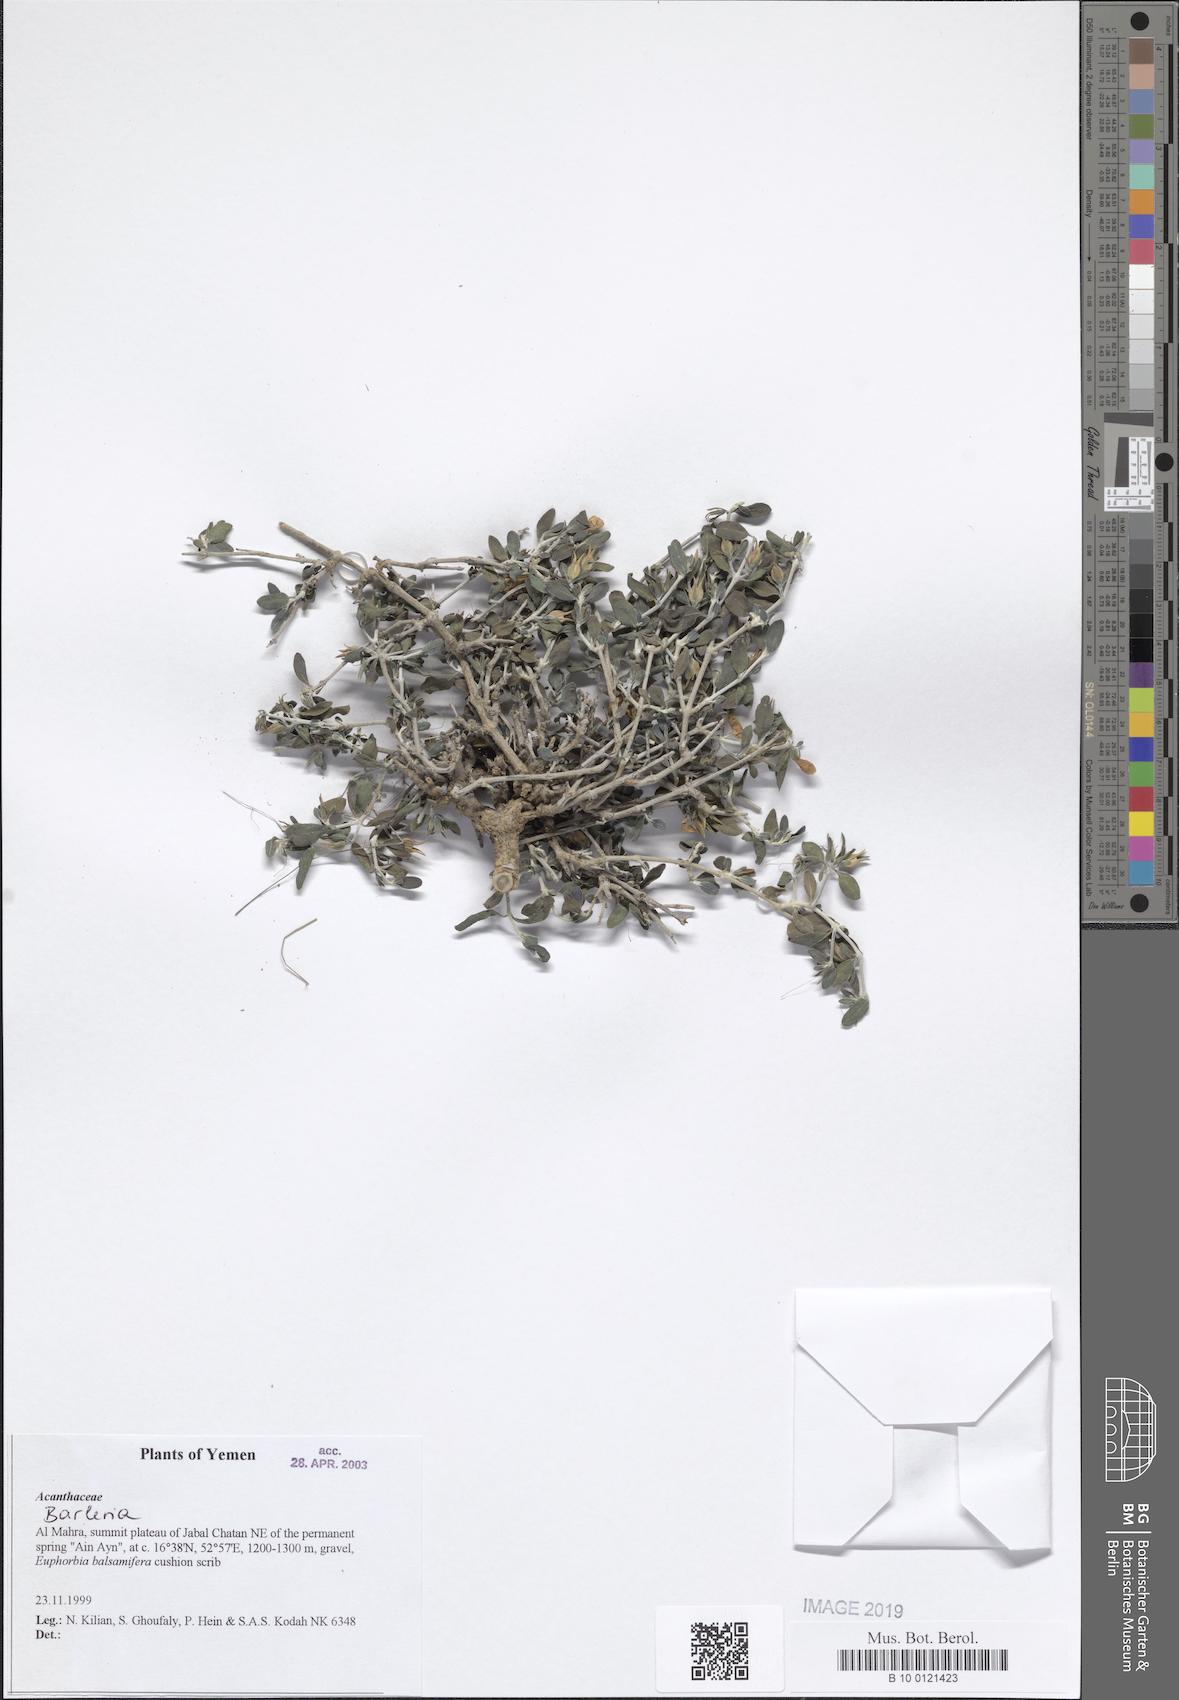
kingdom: Plantae
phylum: Tracheophyta
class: Magnoliopsida
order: Lamiales
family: Acanthaceae
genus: Barleria
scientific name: Barleria
